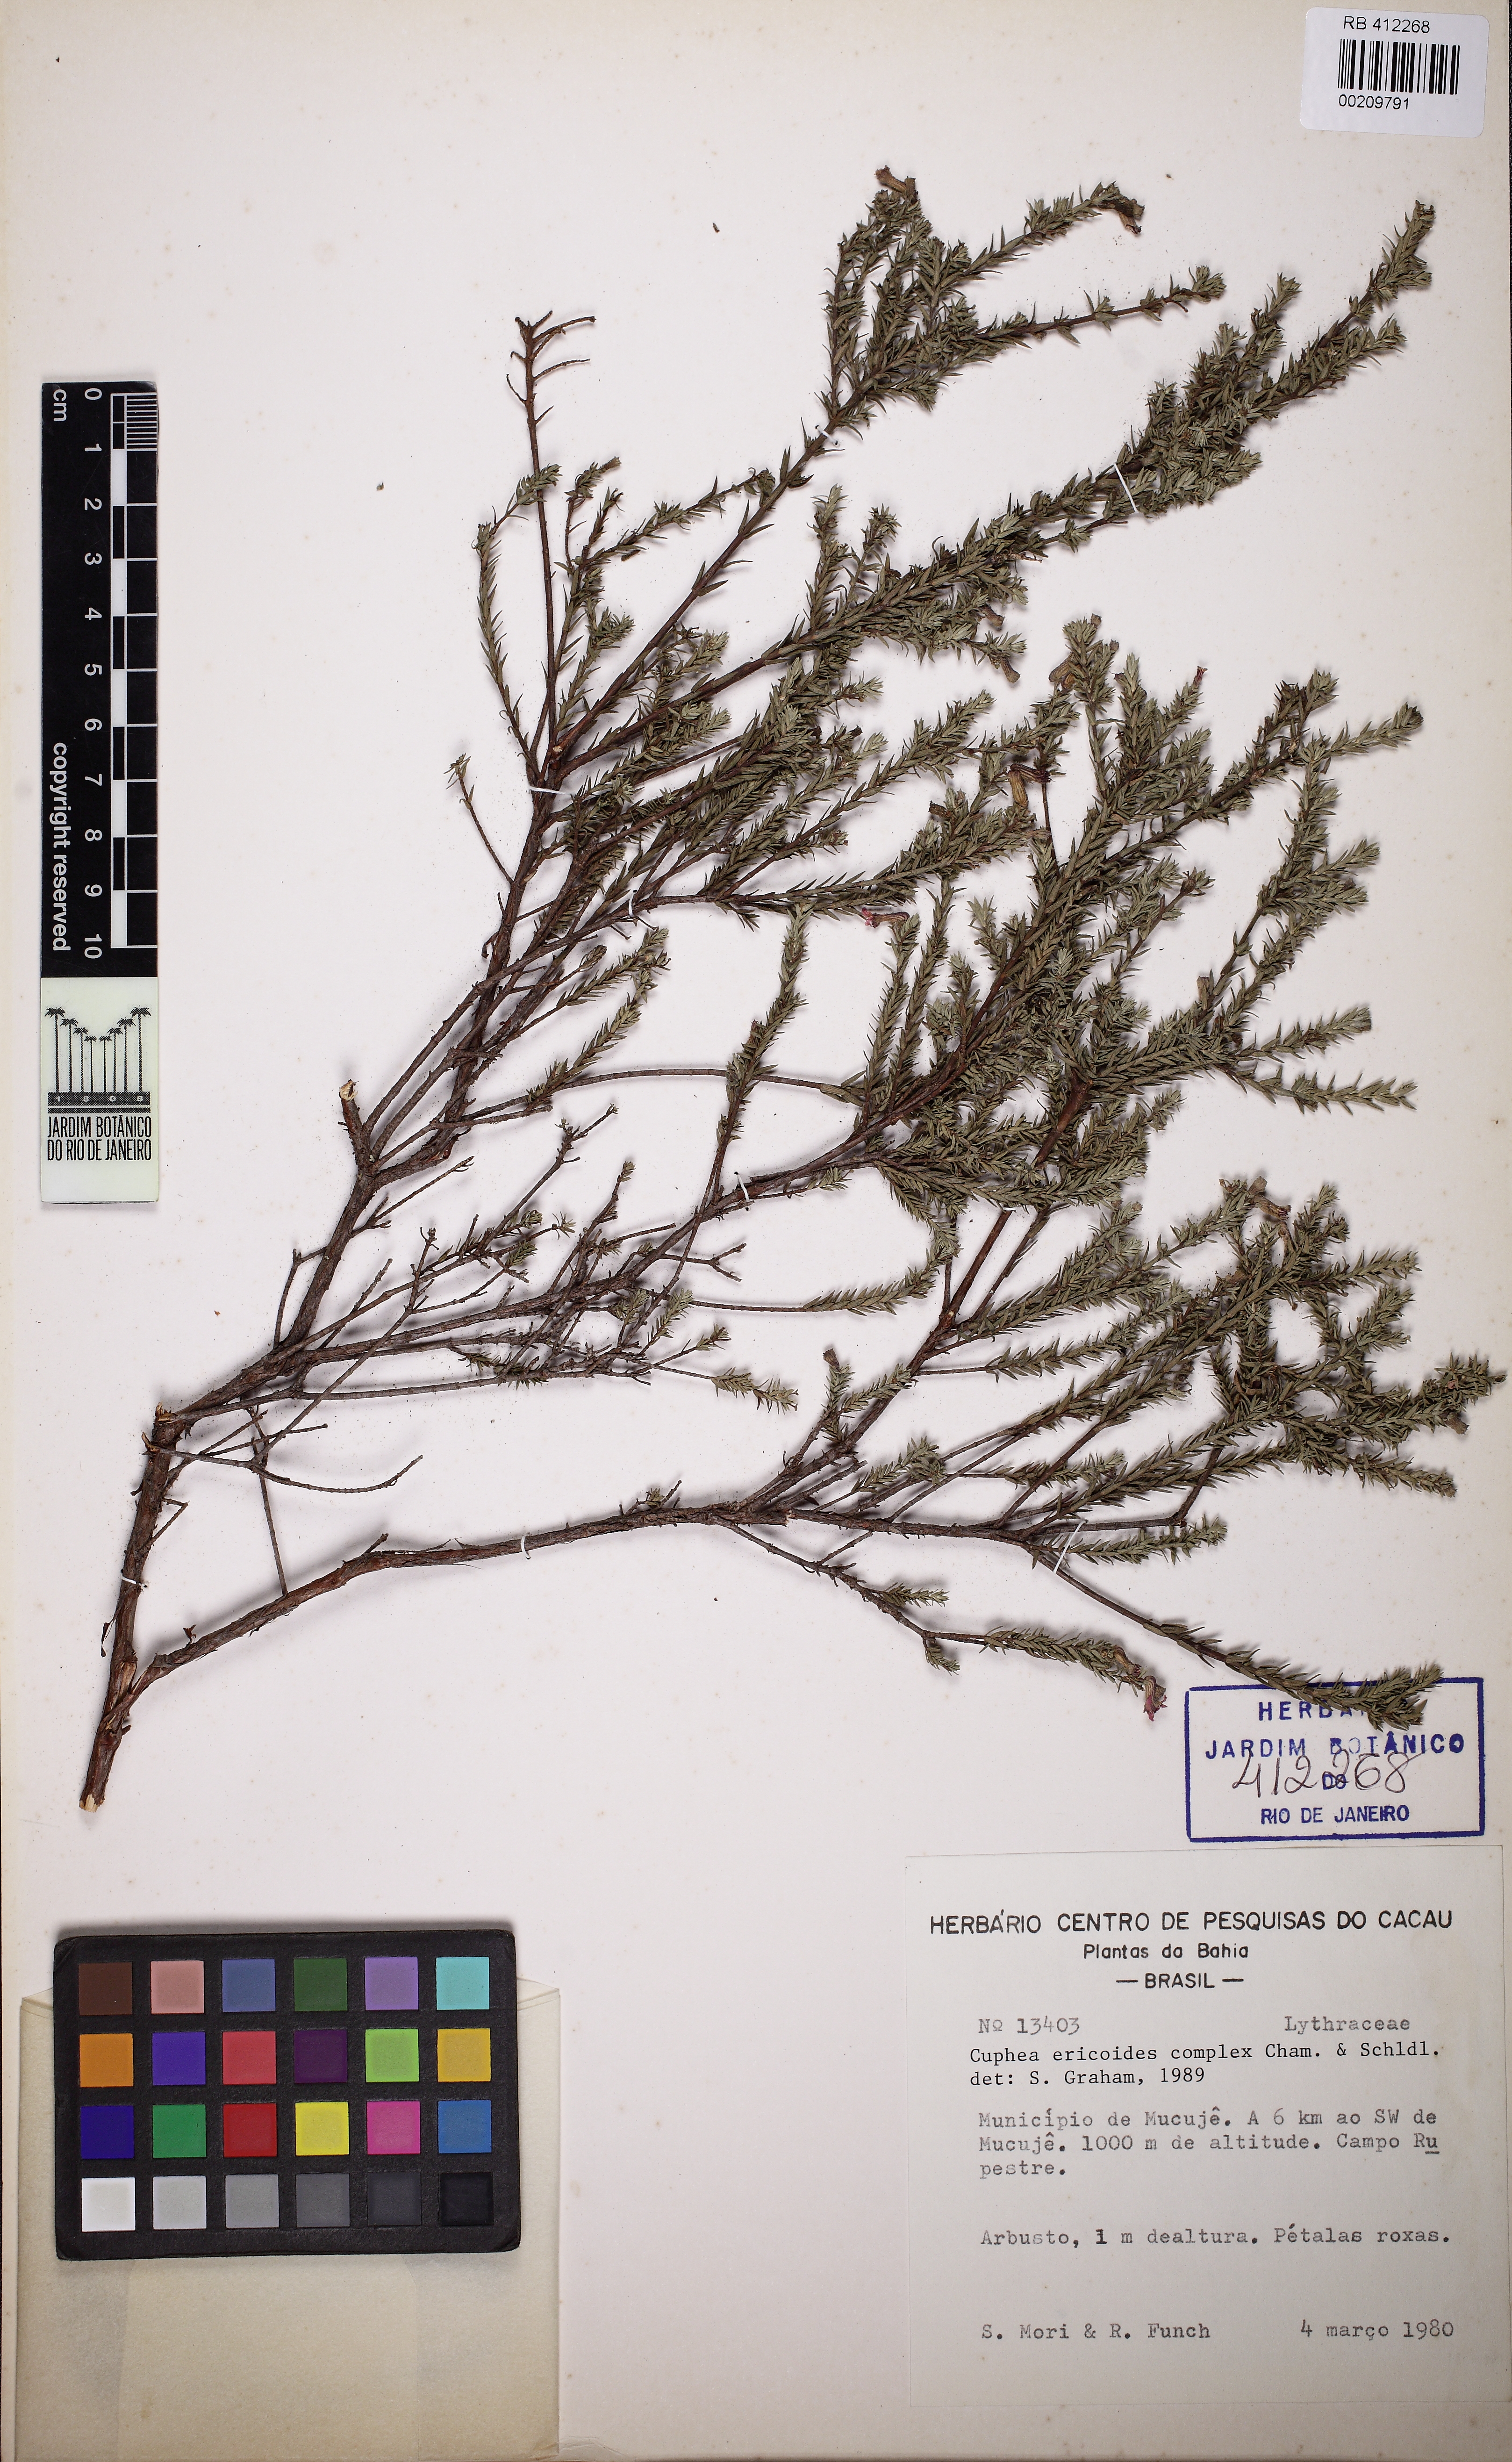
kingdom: Plantae
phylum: Tracheophyta
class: Magnoliopsida
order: Myrtales
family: Lythraceae
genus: Cuphea
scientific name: Cuphea ericoides
